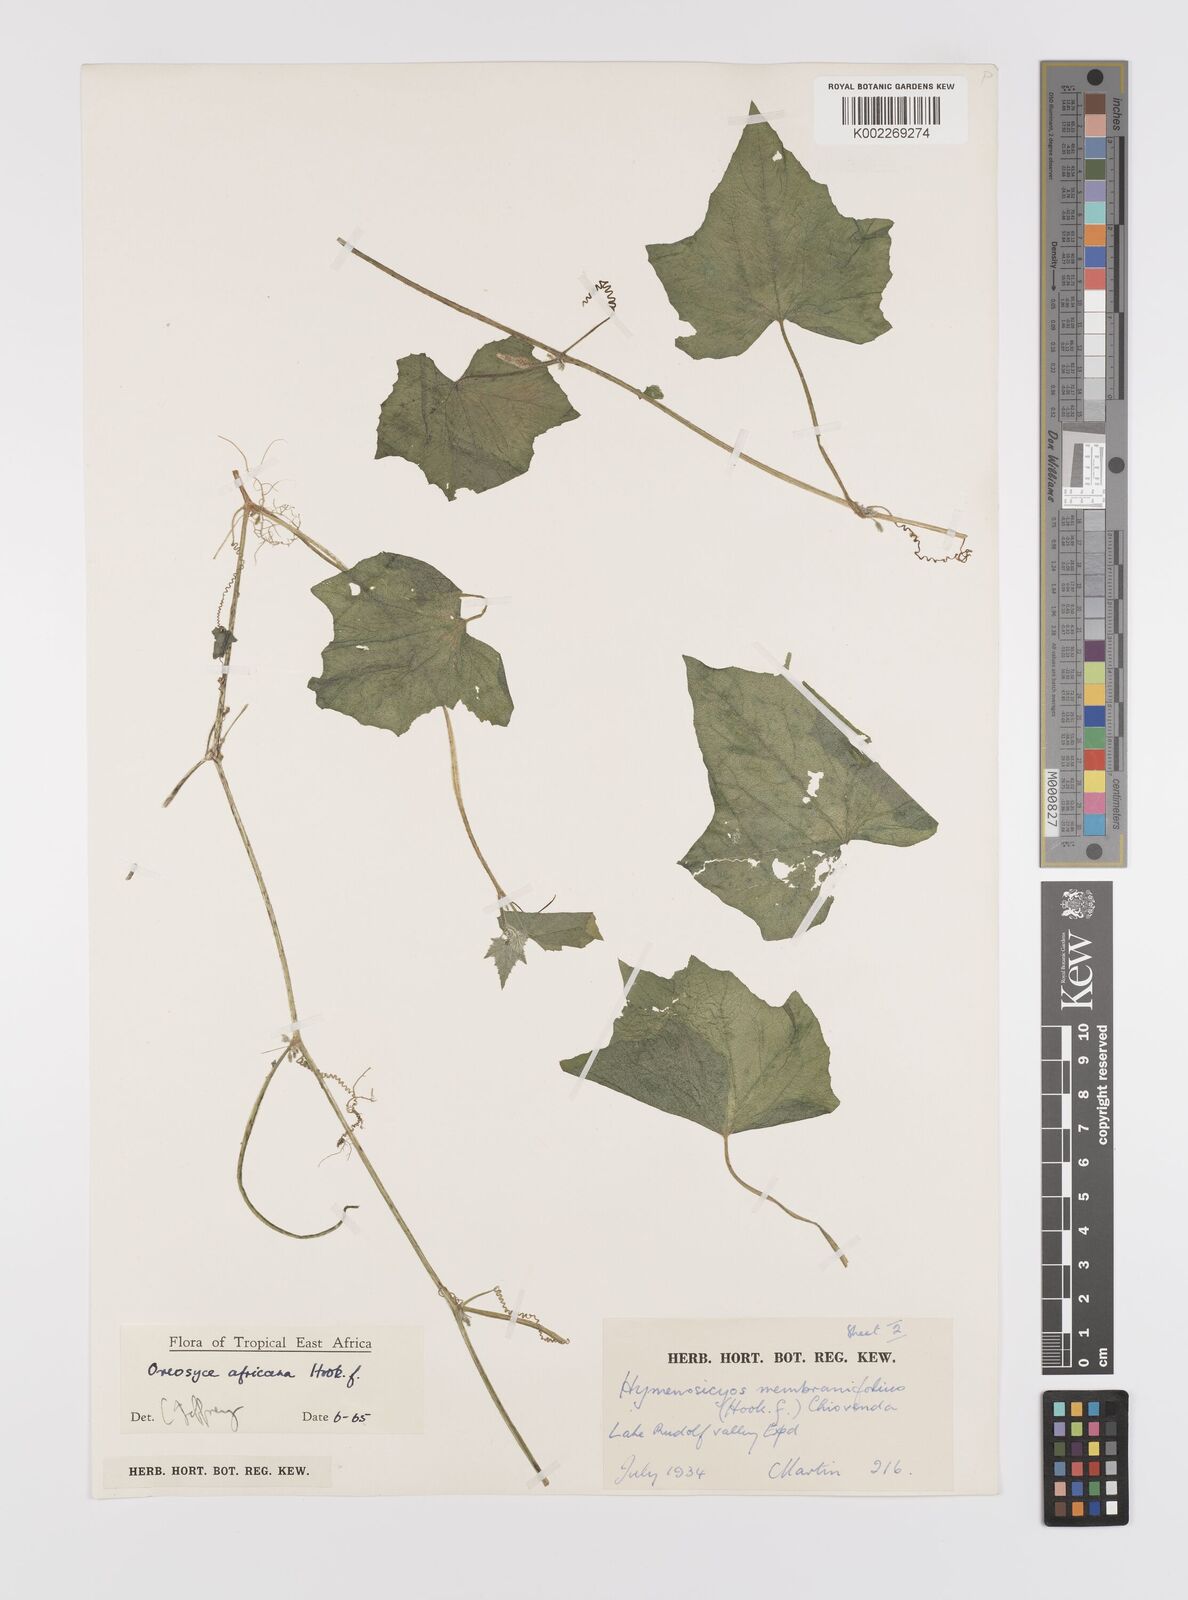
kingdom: Plantae
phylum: Tracheophyta
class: Magnoliopsida
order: Cucurbitales
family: Cucurbitaceae
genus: Cucumis
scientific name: Cucumis oreosyce
